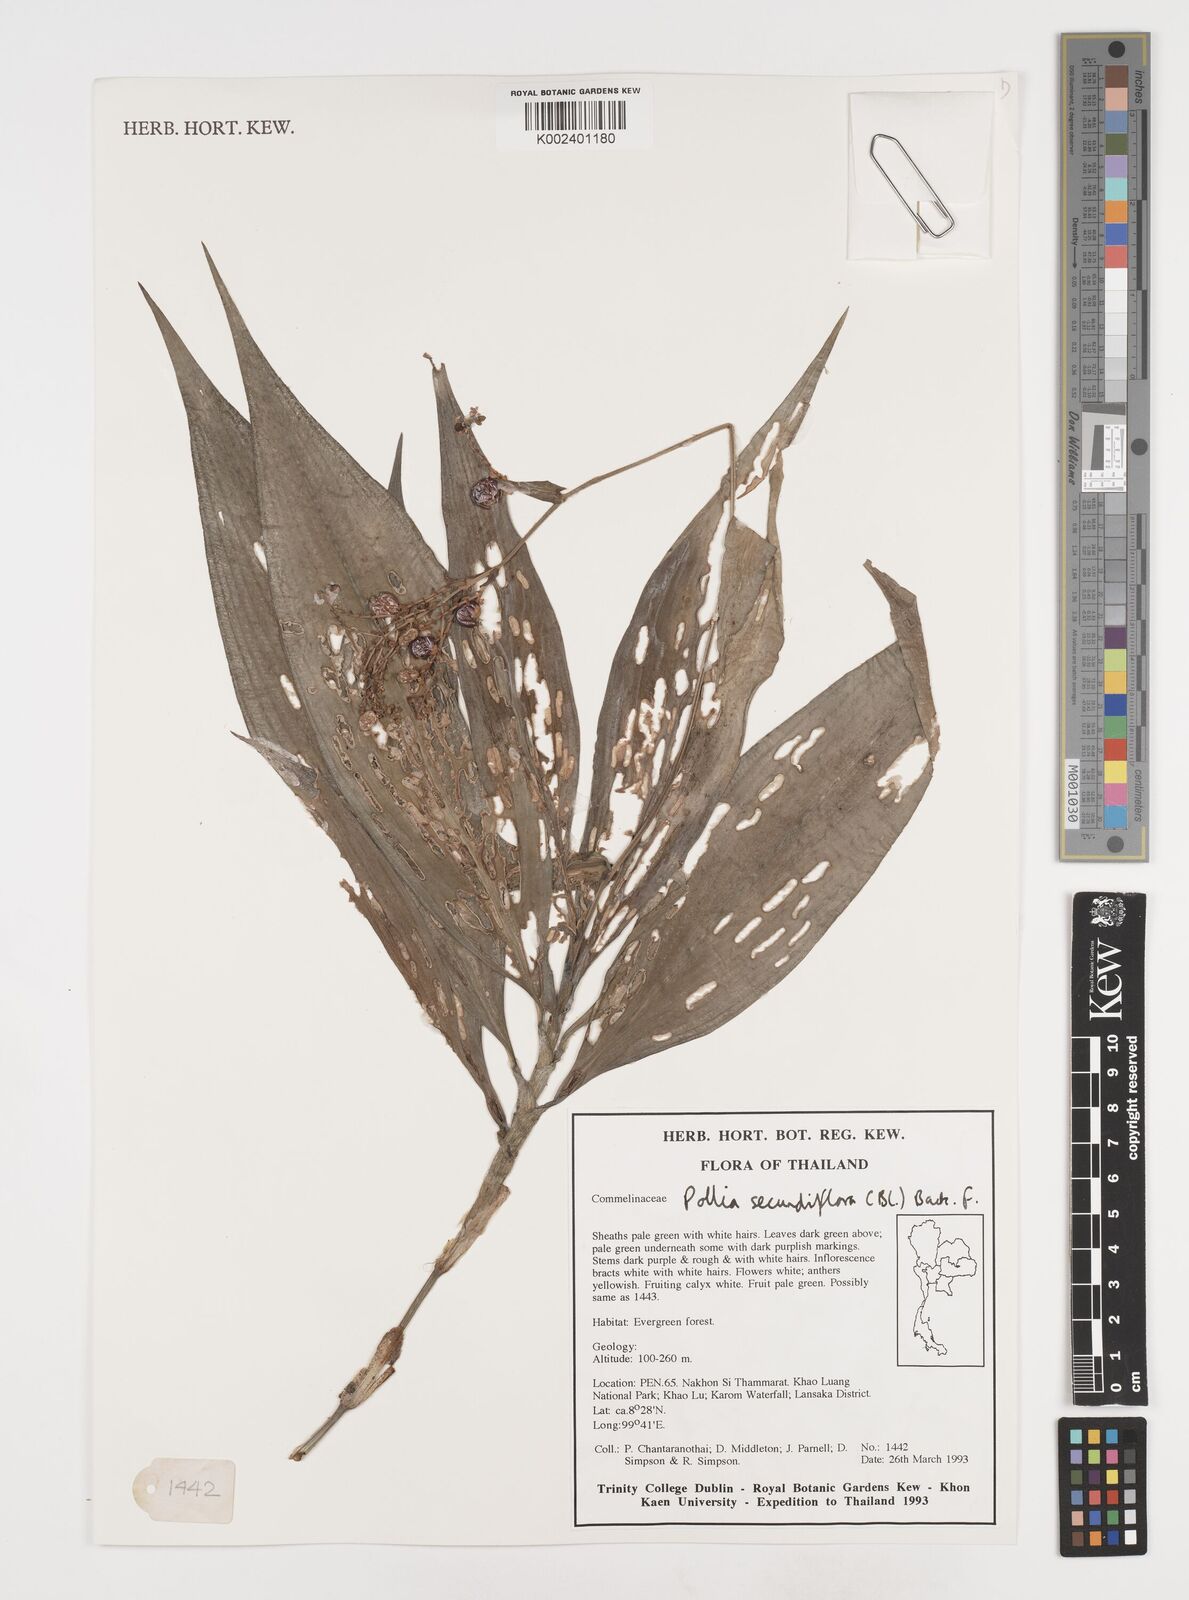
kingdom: Plantae
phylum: Tracheophyta
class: Liliopsida
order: Commelinales
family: Commelinaceae
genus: Pollia
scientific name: Pollia secundiflora
